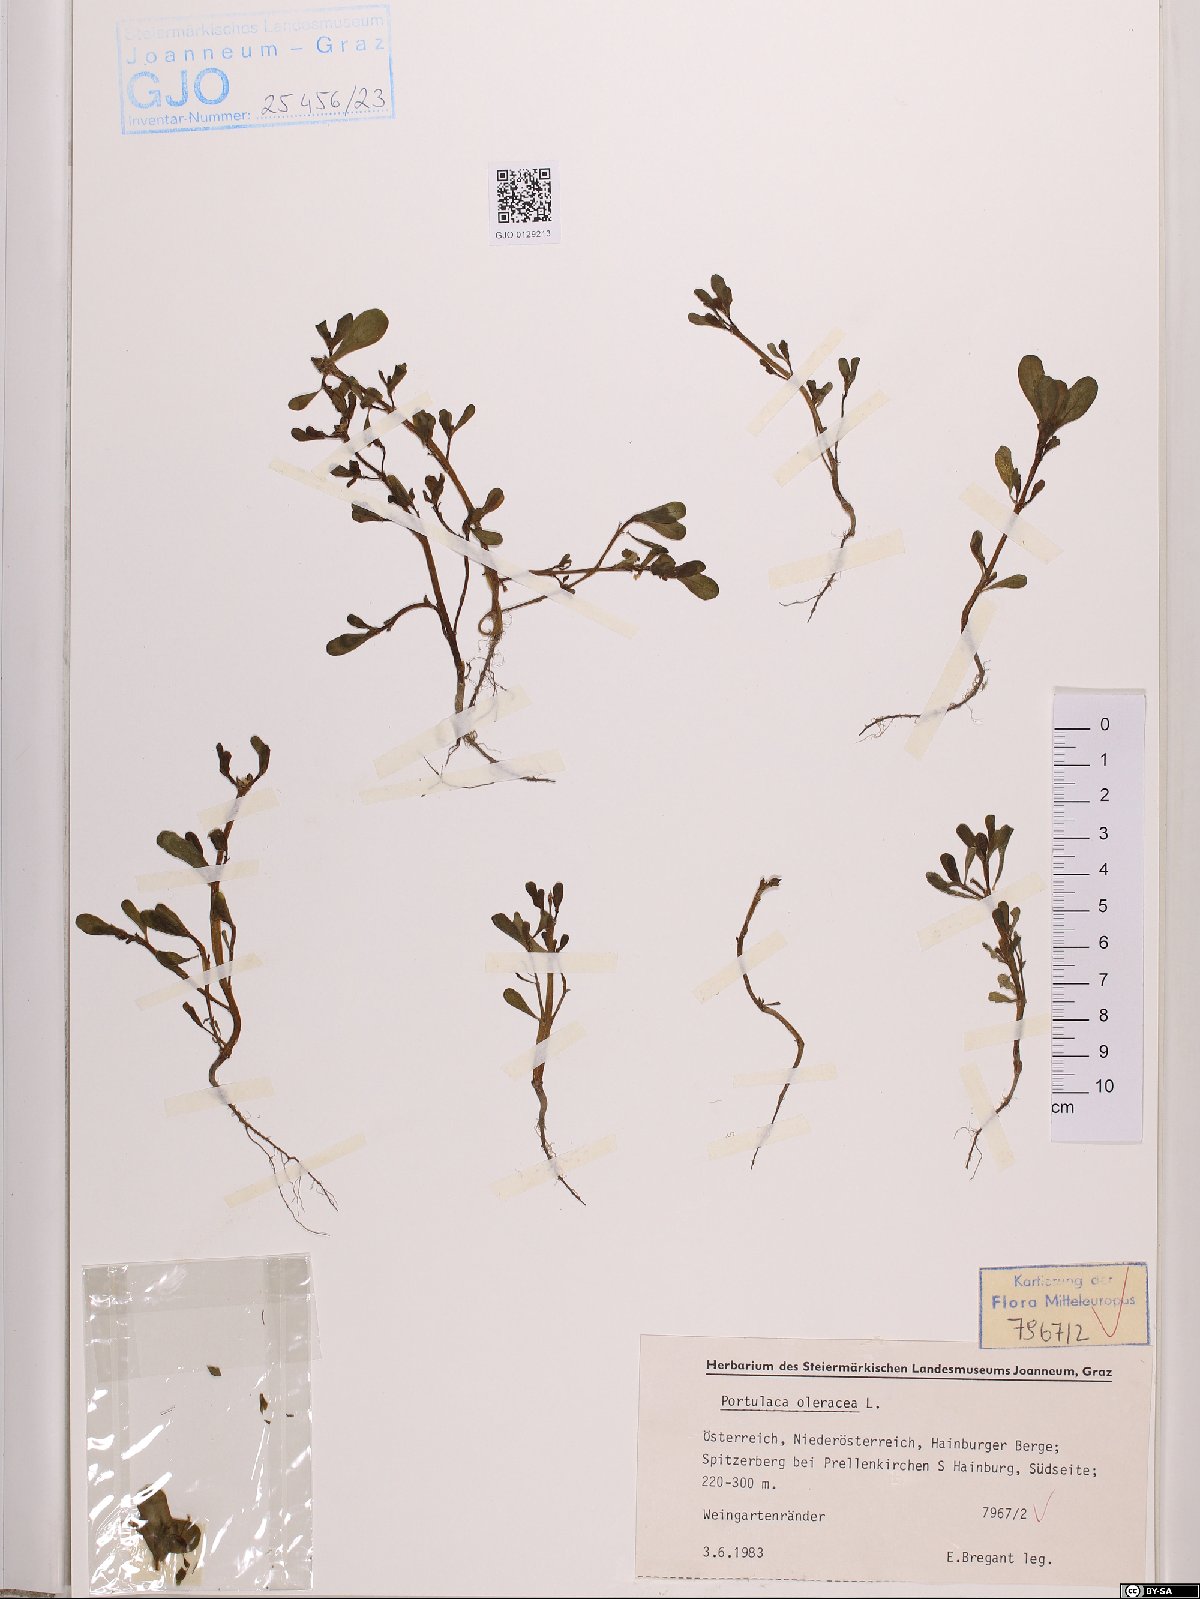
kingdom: Plantae
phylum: Tracheophyta
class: Magnoliopsida
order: Caryophyllales
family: Portulacaceae
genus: Portulaca
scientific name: Portulaca oleracea
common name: Common purslane
